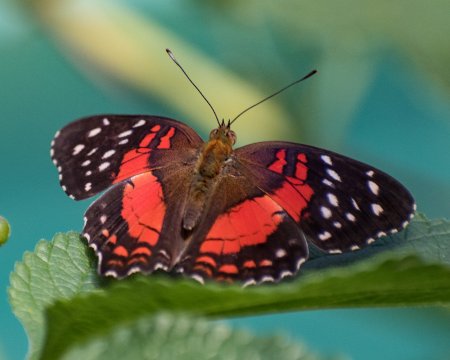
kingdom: Animalia
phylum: Arthropoda
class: Insecta
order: Lepidoptera
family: Nymphalidae
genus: Anartia
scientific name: Anartia amathea
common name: Red Peacock
